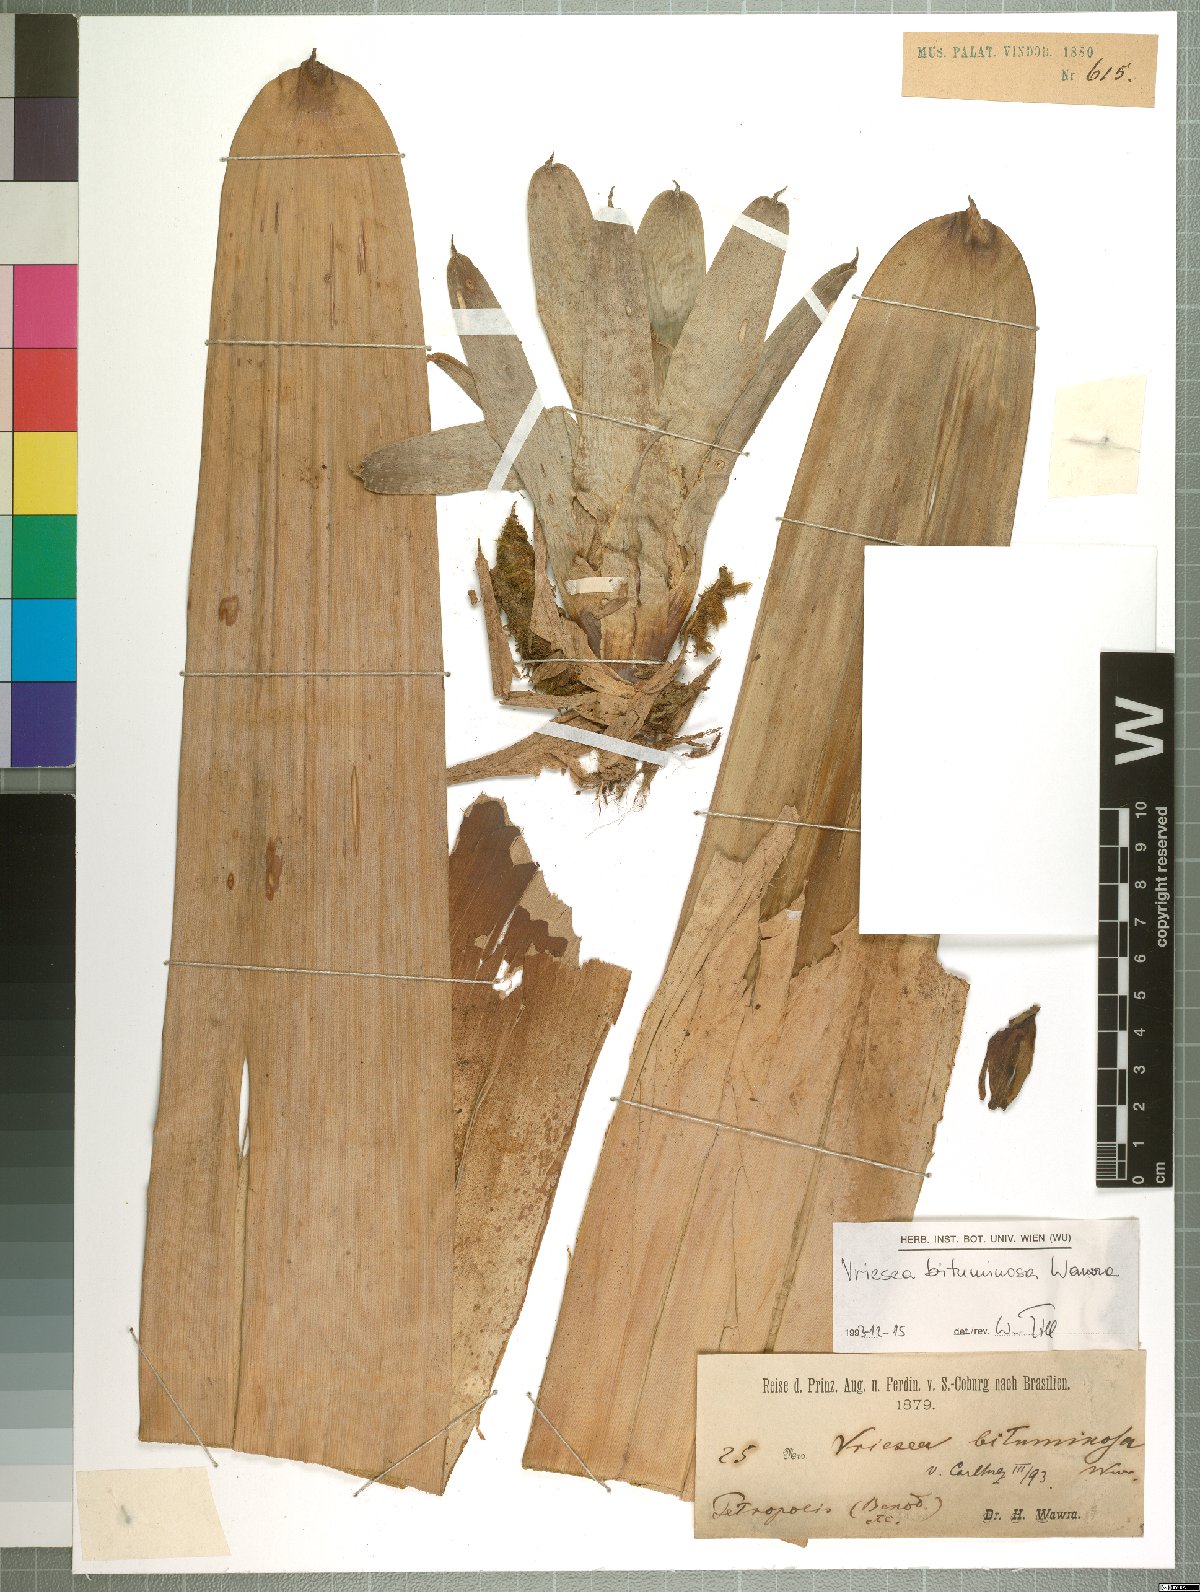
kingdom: Plantae
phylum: Tracheophyta
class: Liliopsida
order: Poales
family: Bromeliaceae
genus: Vriesea
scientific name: Vriesea bituminosa
